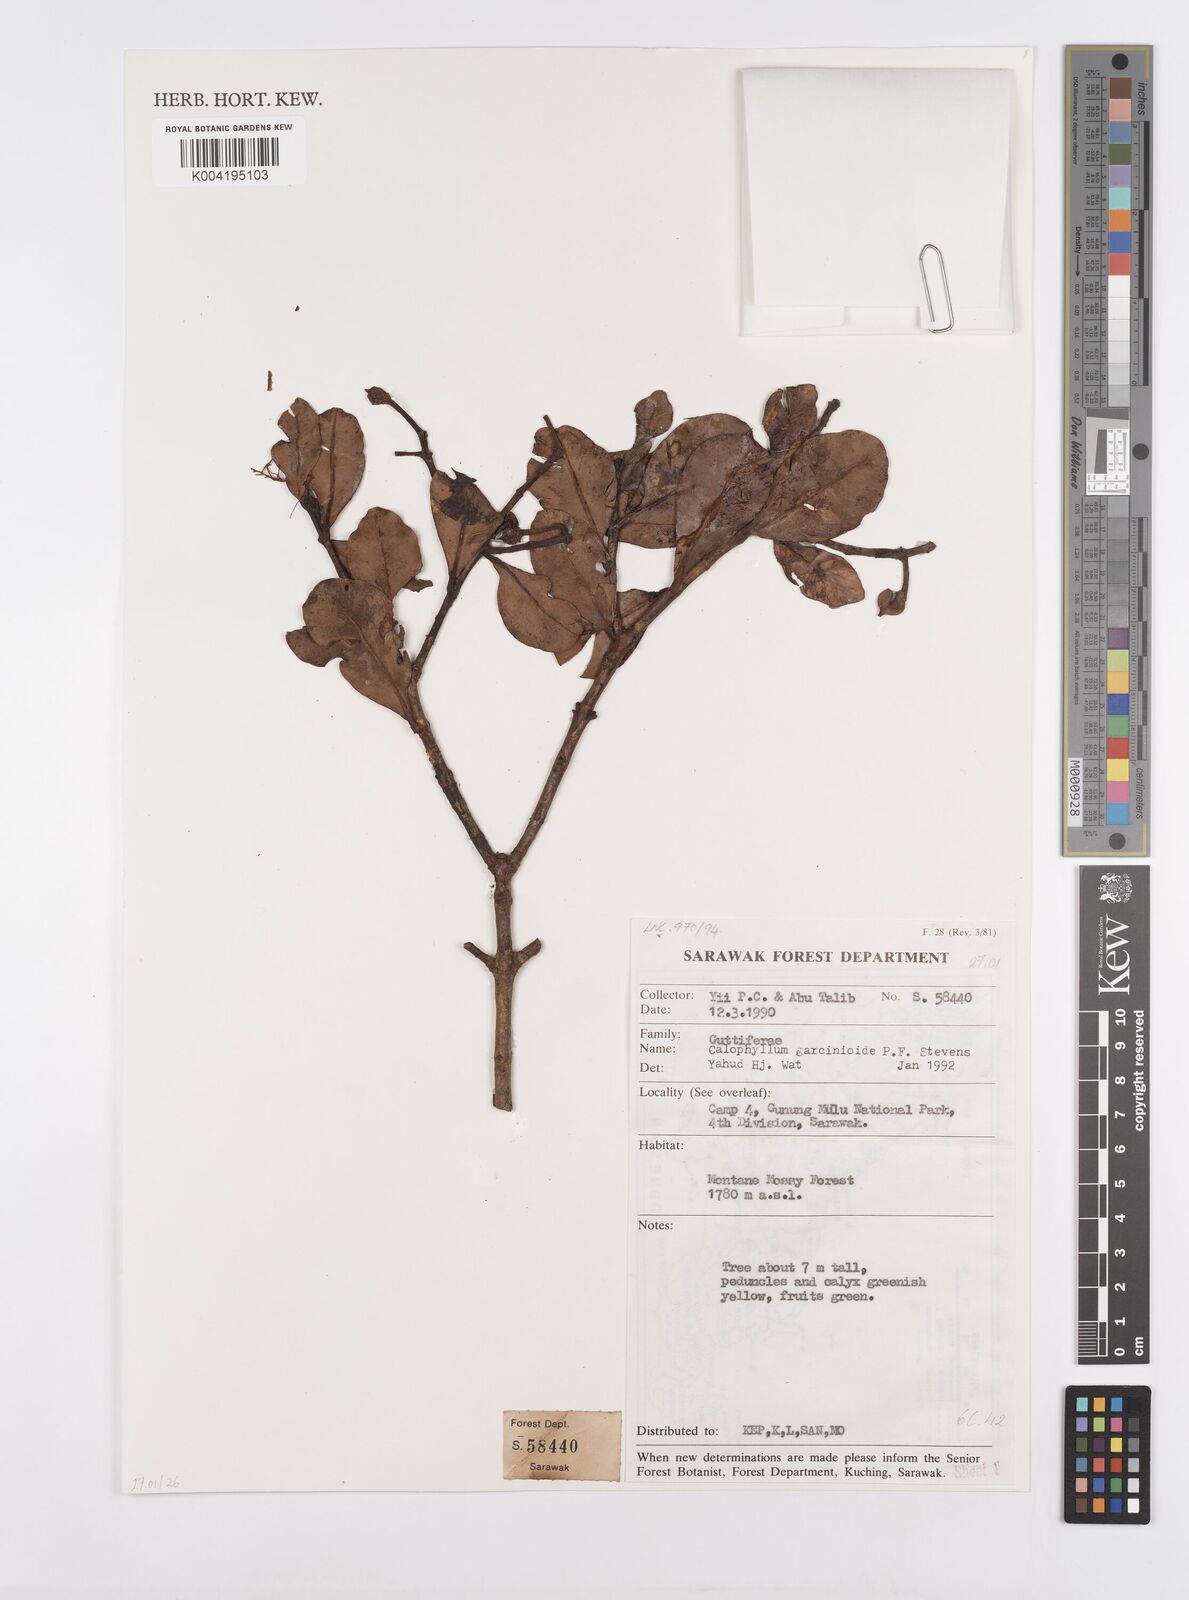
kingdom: Plantae
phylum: Tracheophyta
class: Magnoliopsida
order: Malpighiales
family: Calophyllaceae
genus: Calophyllum
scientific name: Calophyllum garcinioides
